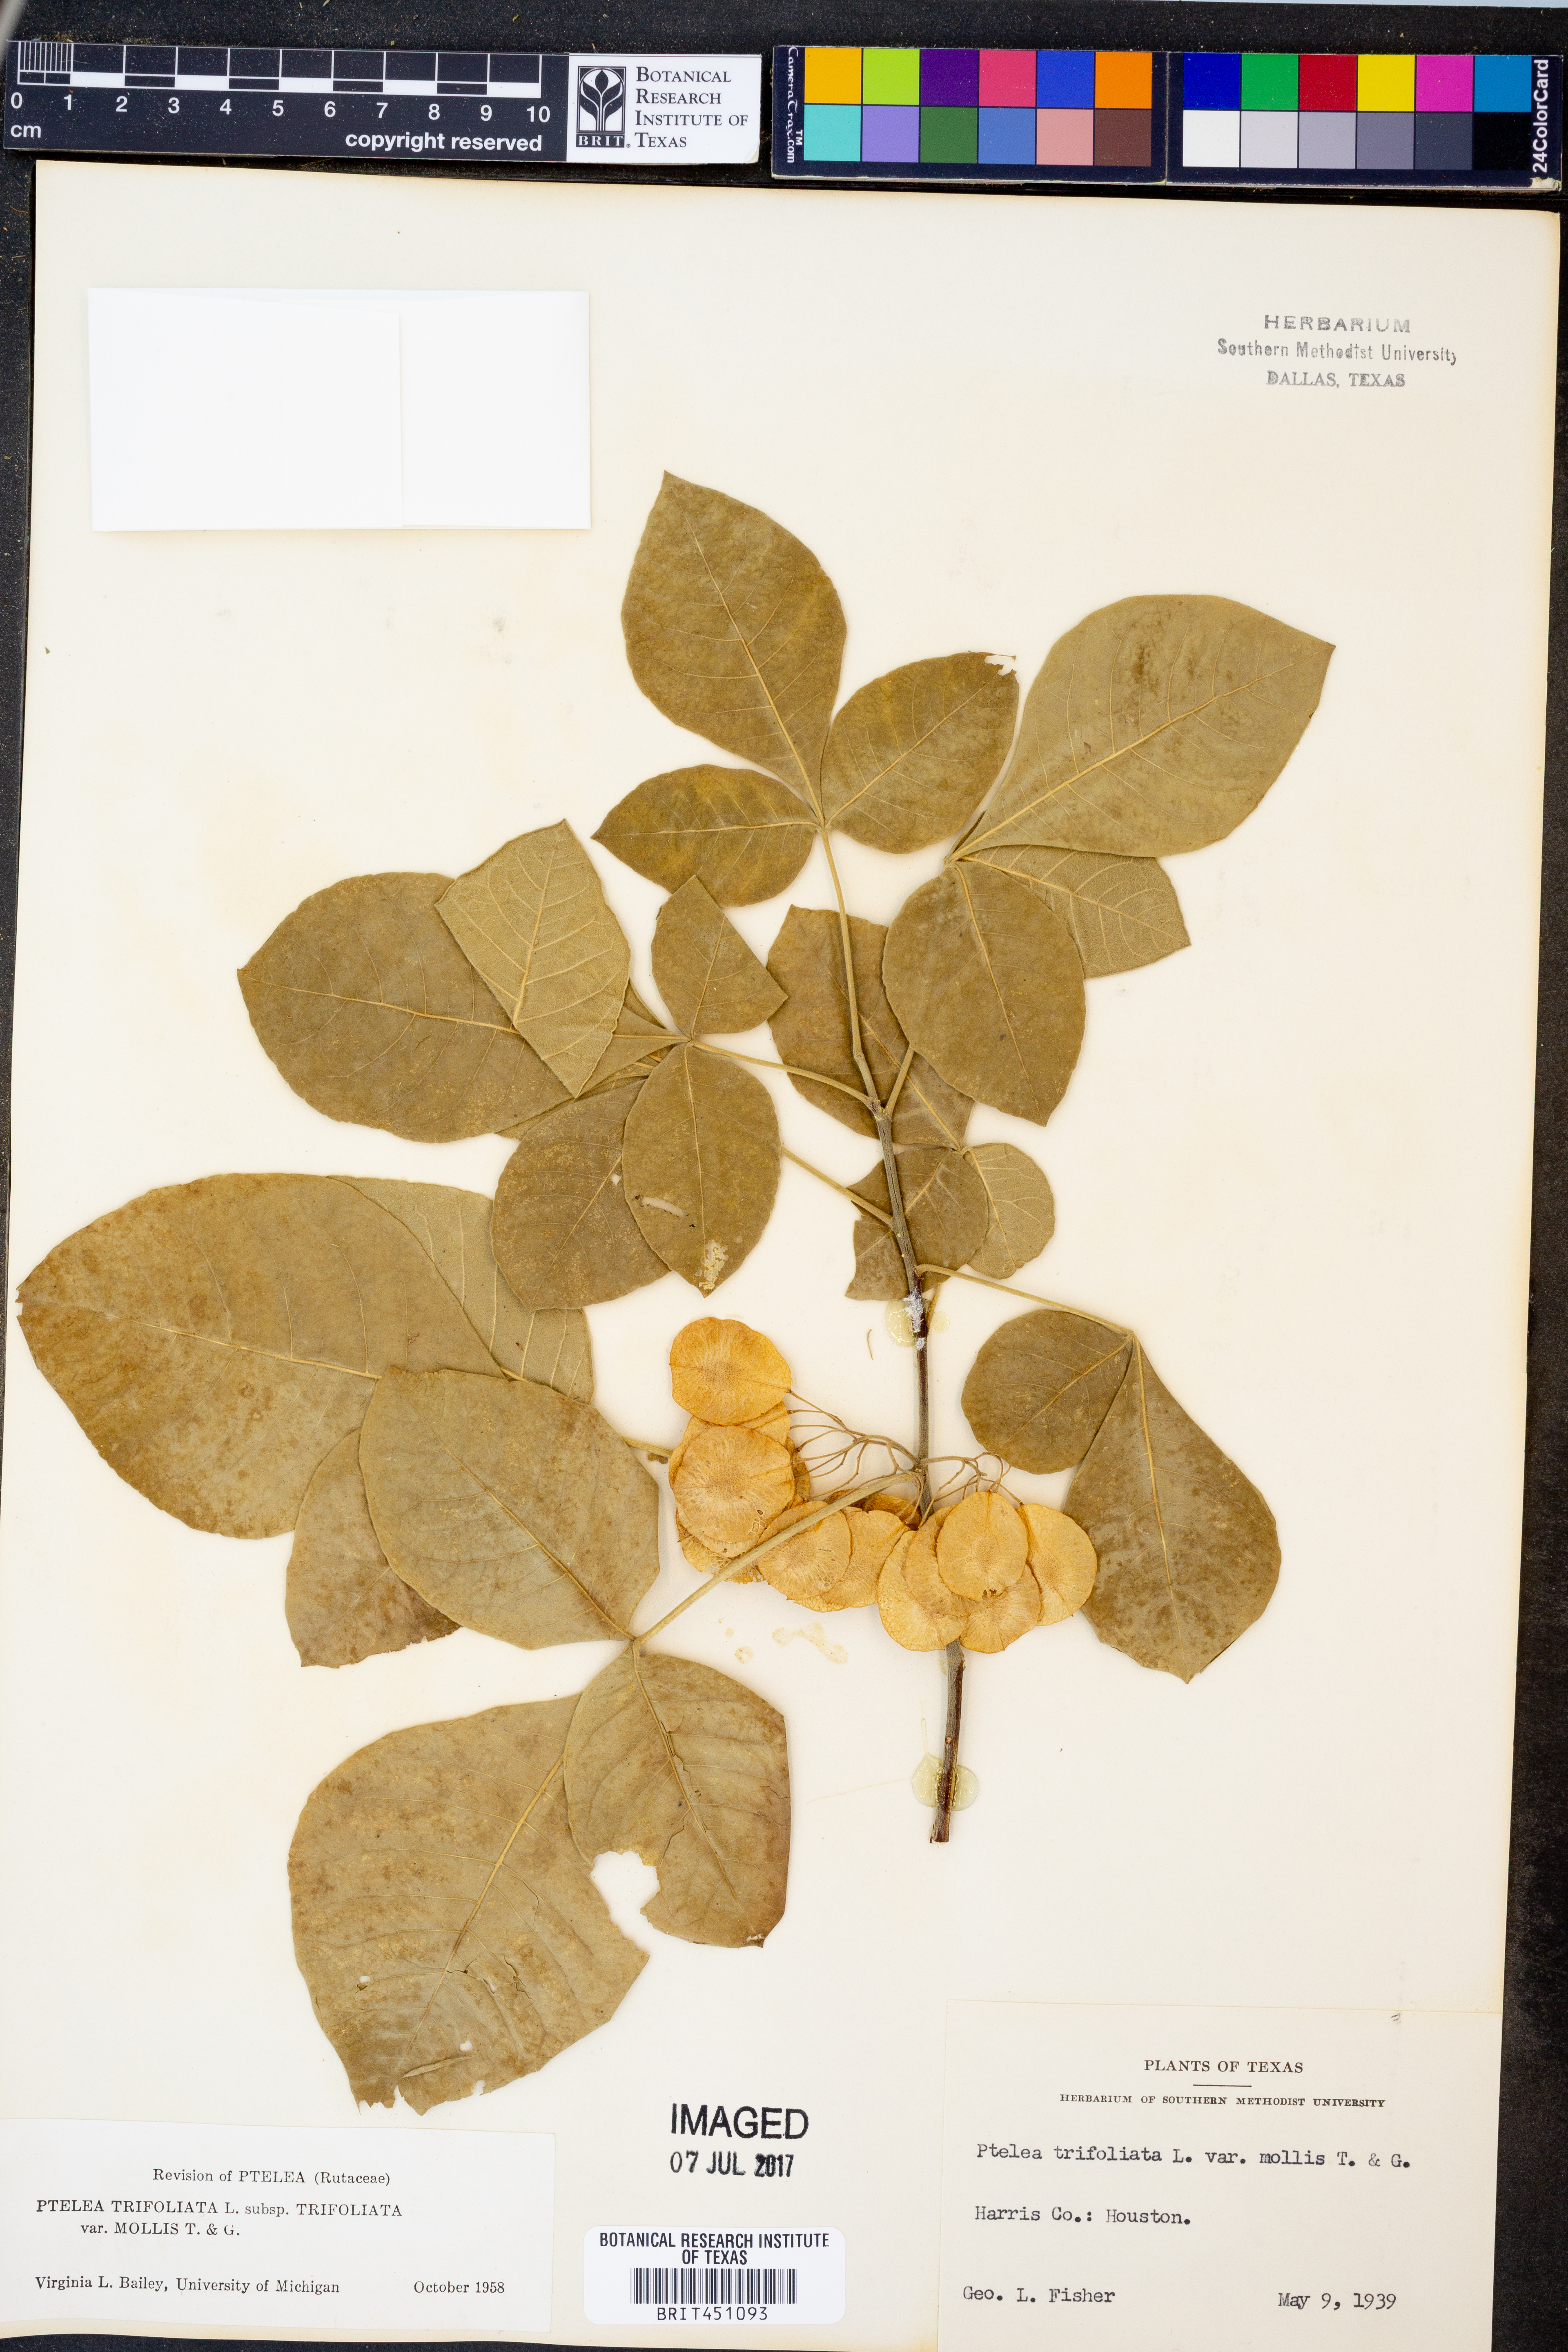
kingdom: Plantae
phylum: Tracheophyta
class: Magnoliopsida
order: Sapindales
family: Rutaceae
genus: Ptelea
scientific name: Ptelea trifoliata
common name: Common hop-tree
